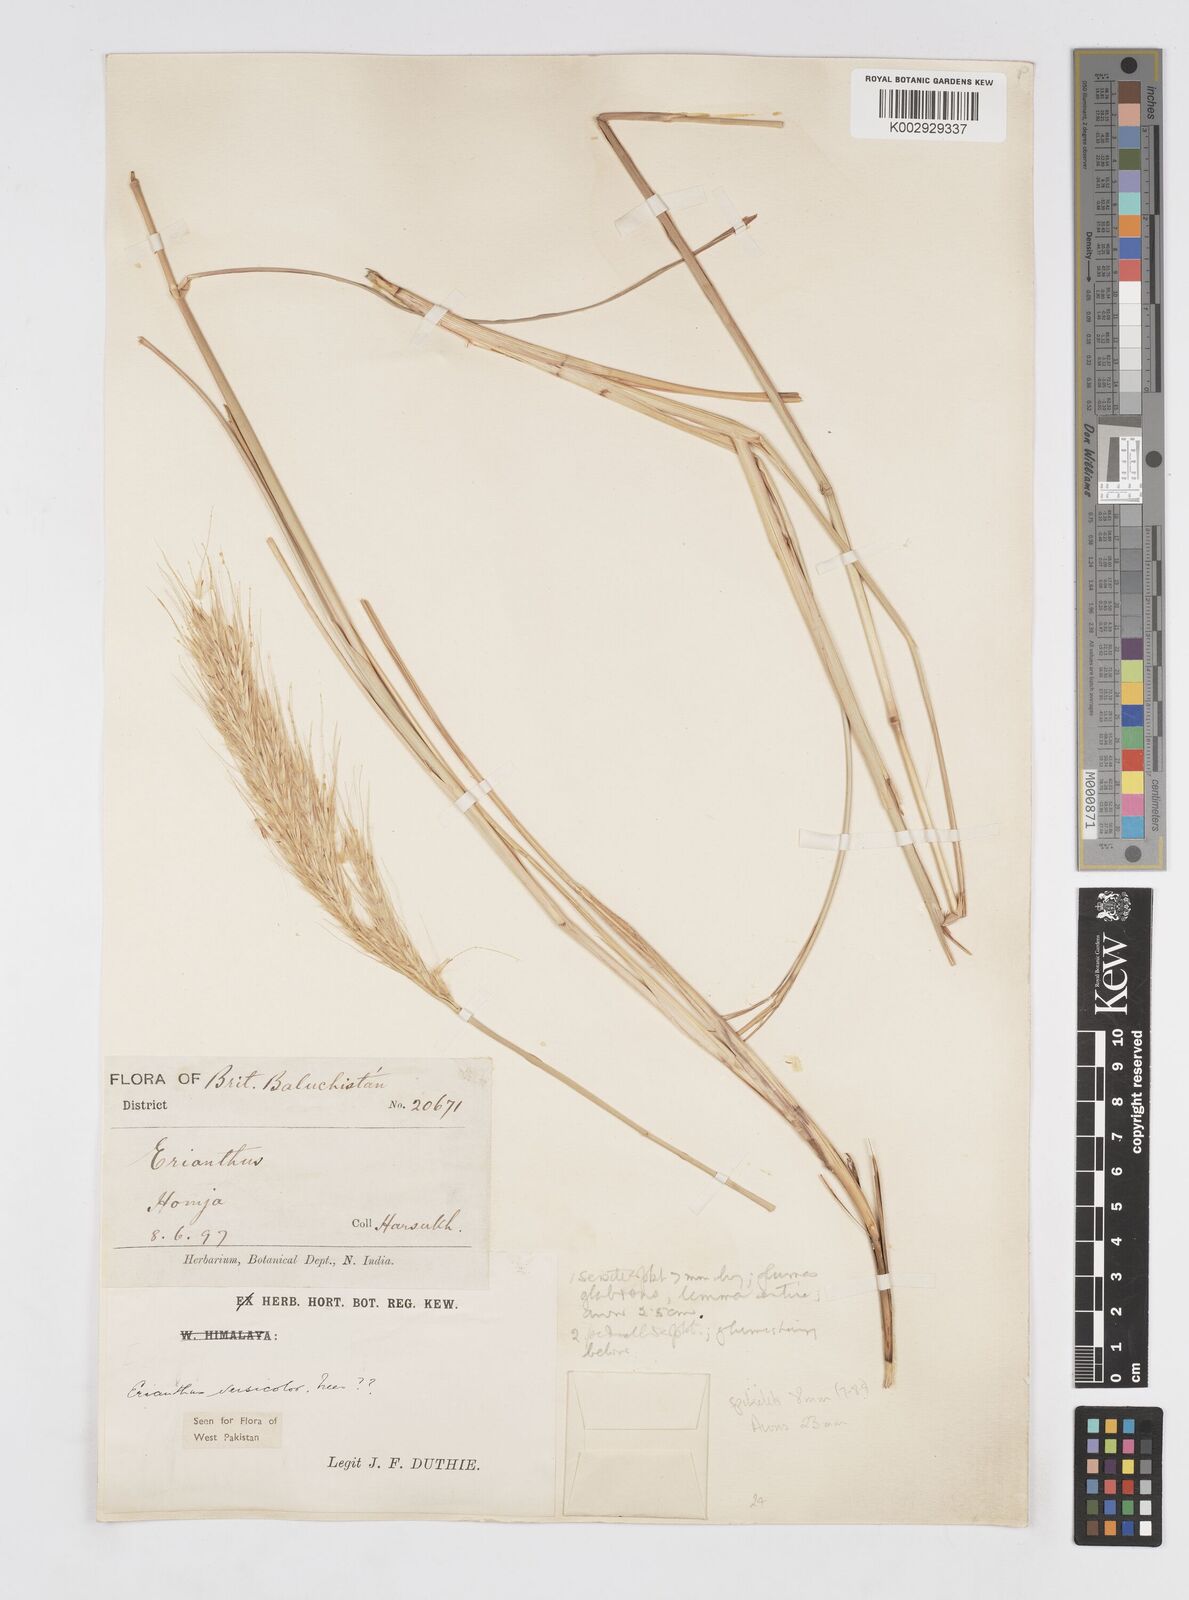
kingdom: Plantae
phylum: Tracheophyta
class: Liliopsida
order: Poales
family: Poaceae
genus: Saccharum
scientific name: Saccharum filifolium
